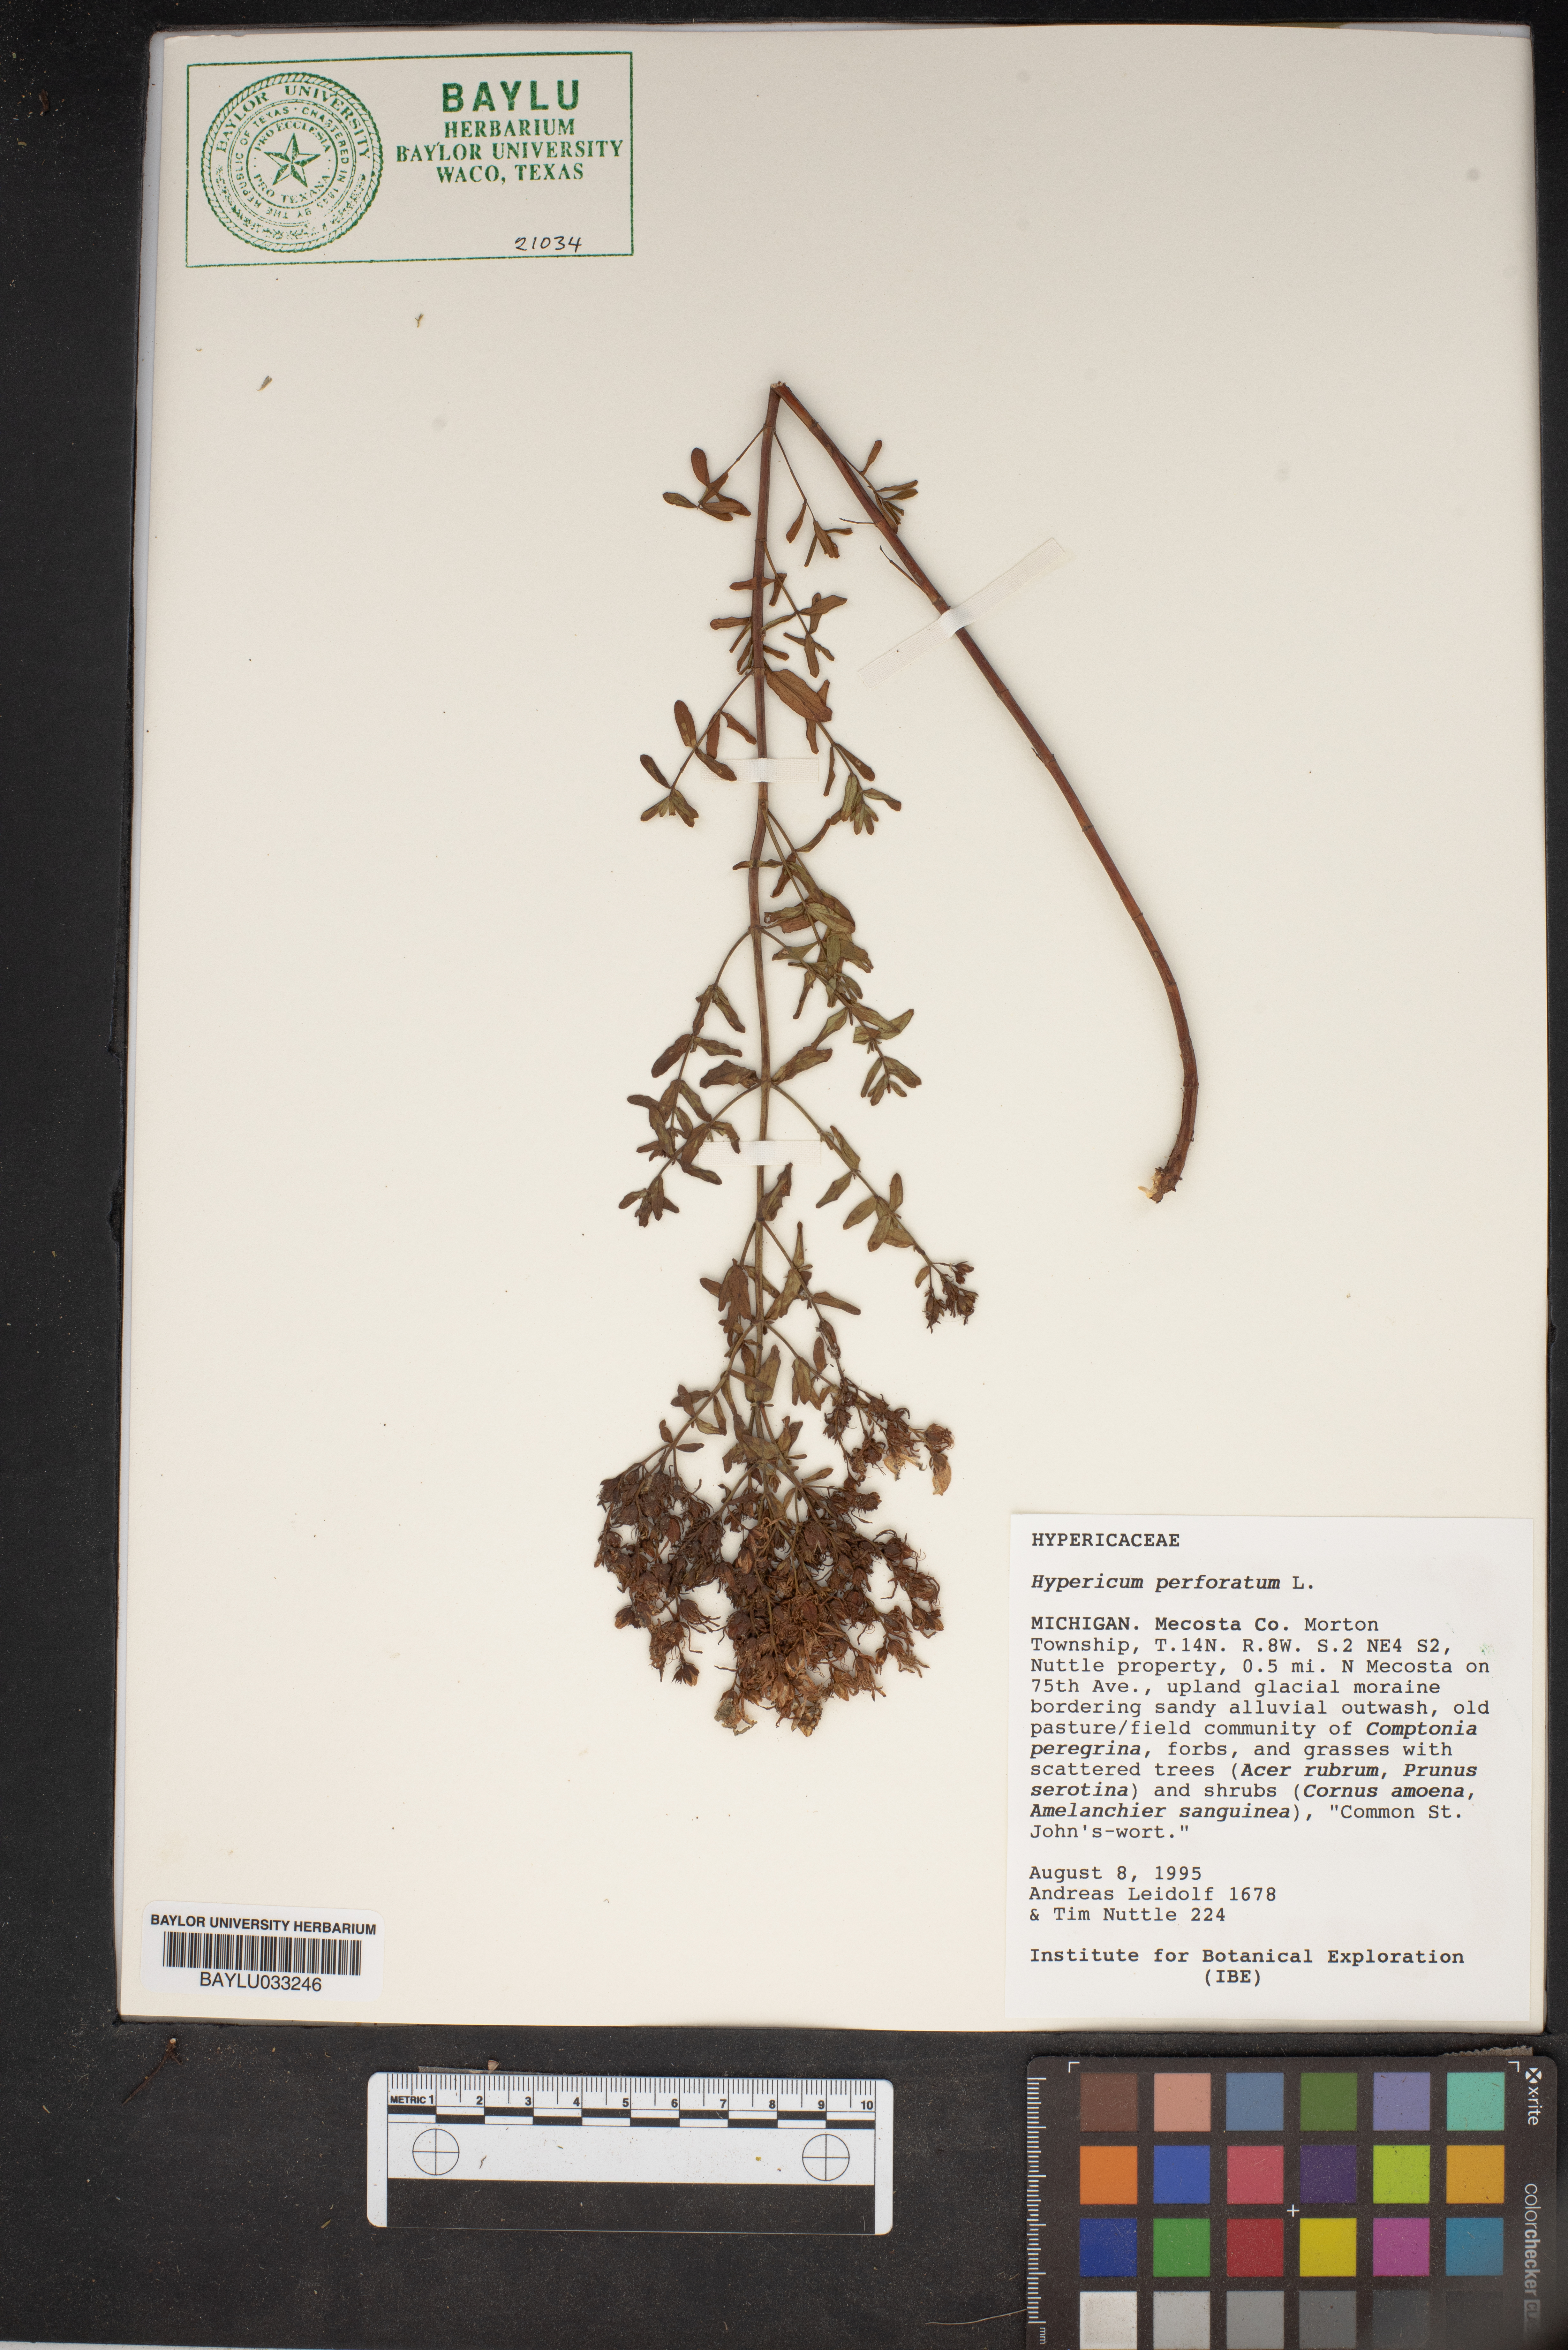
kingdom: Plantae
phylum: Tracheophyta
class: Magnoliopsida
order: Malpighiales
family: Hypericaceae
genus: Hypericum
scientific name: Hypericum perforatum
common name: Common st. johnswort
